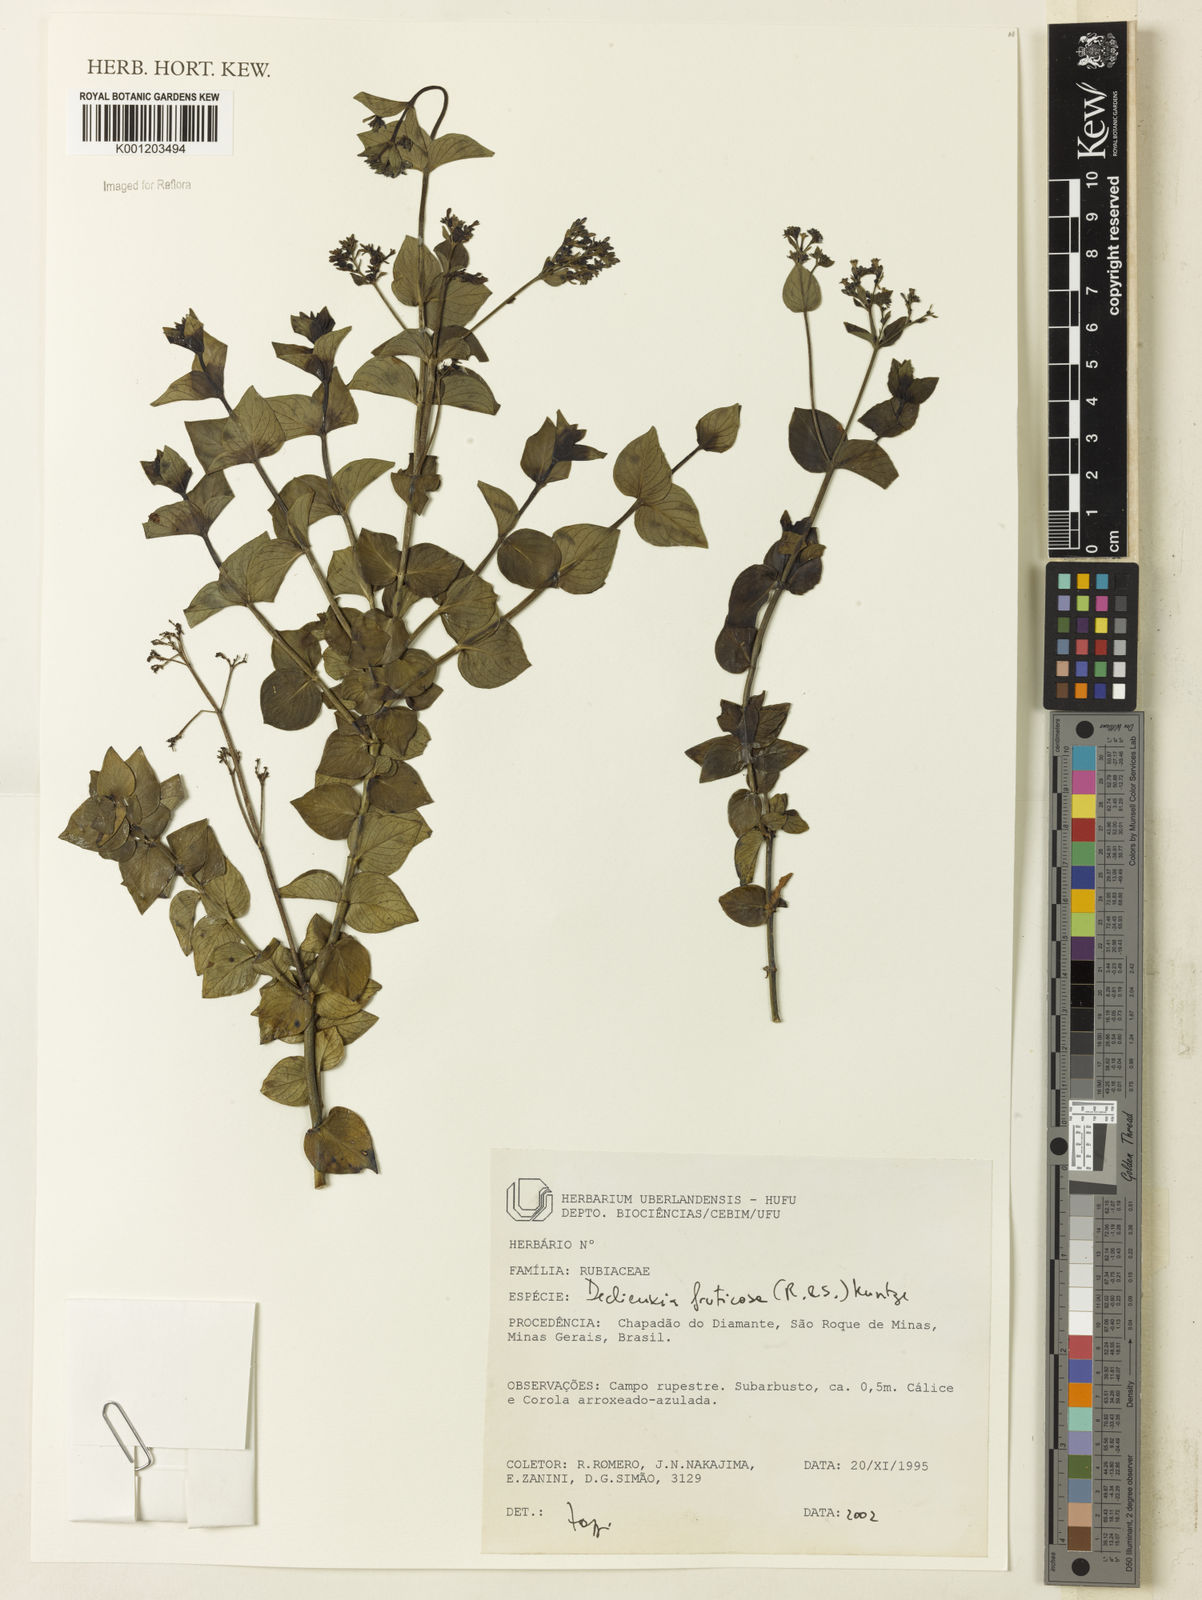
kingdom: Plantae
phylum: Tracheophyta
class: Magnoliopsida
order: Gentianales
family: Rubiaceae
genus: Declieuxia
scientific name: Declieuxia fruticosa
